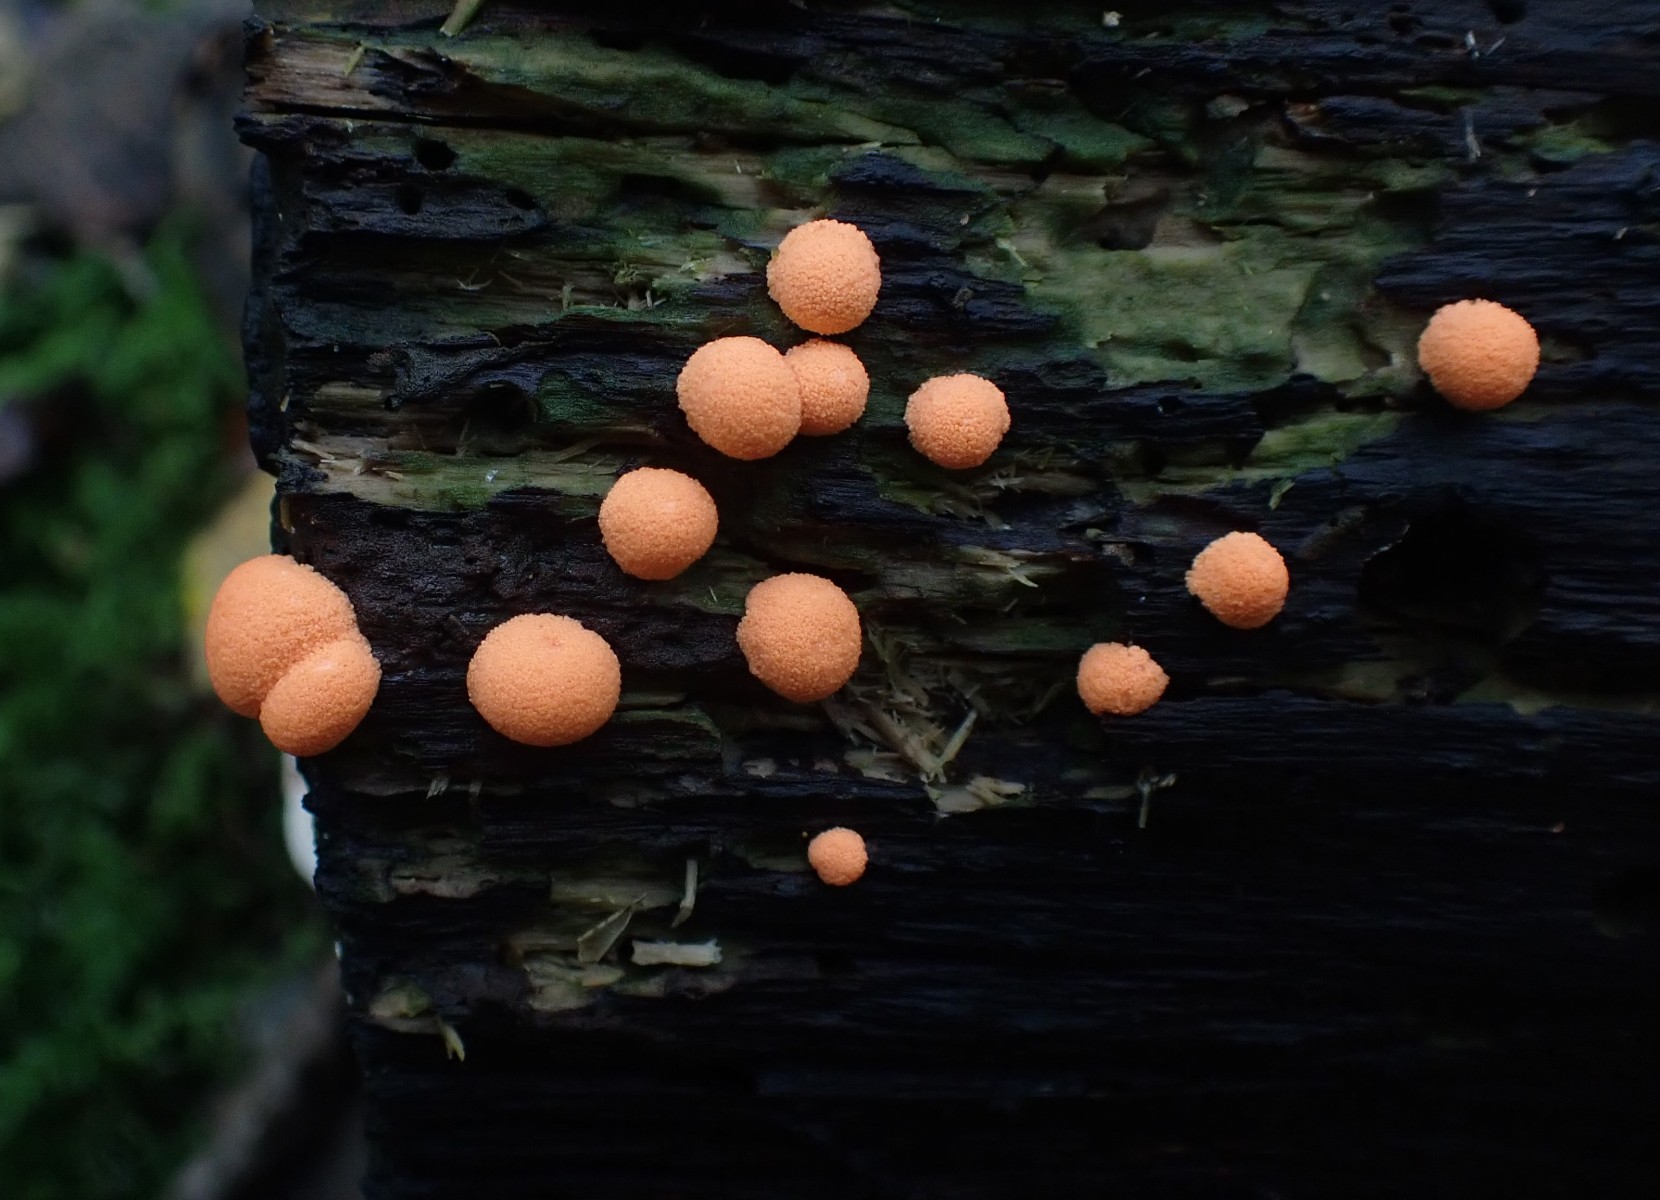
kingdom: Protozoa
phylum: Mycetozoa
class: Myxomycetes
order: Cribrariales
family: Tubiferaceae
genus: Lycogala
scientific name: Lycogala epidendrum
